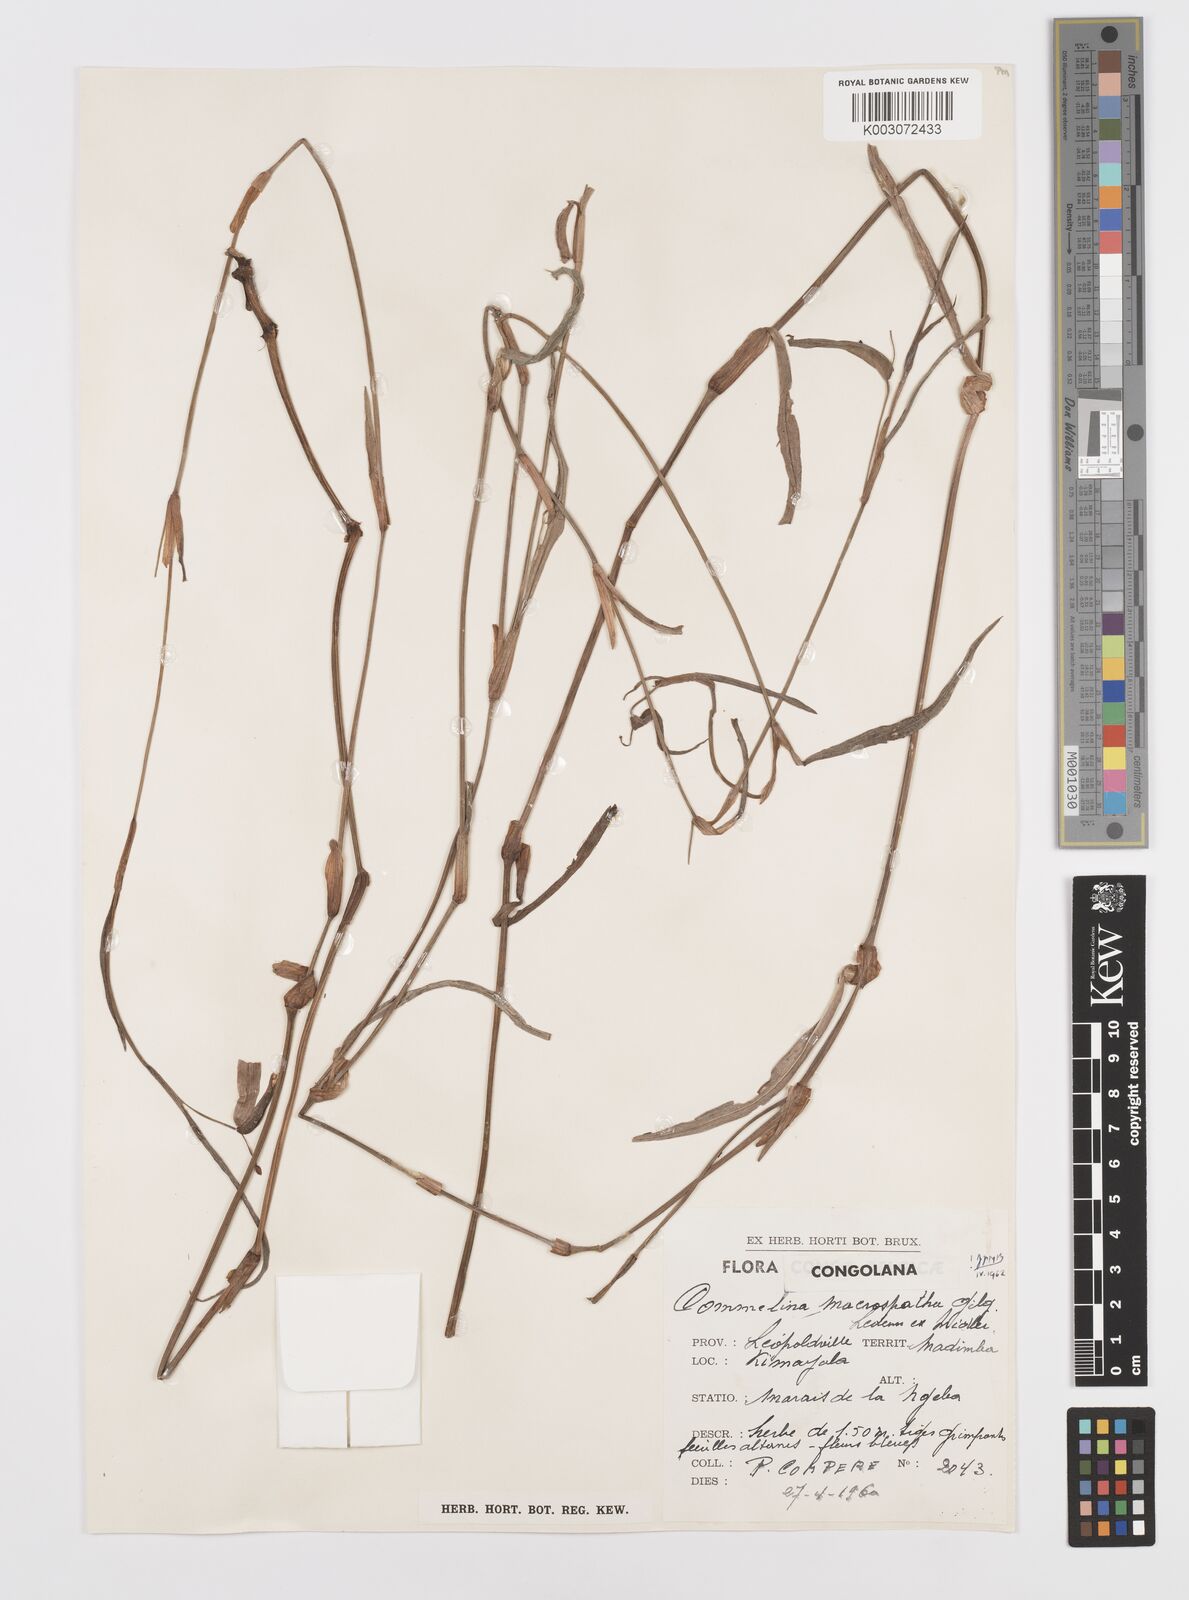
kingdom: Plantae
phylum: Tracheophyta
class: Liliopsida
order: Commelinales
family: Commelinaceae
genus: Commelina
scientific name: Commelina macrospatha
